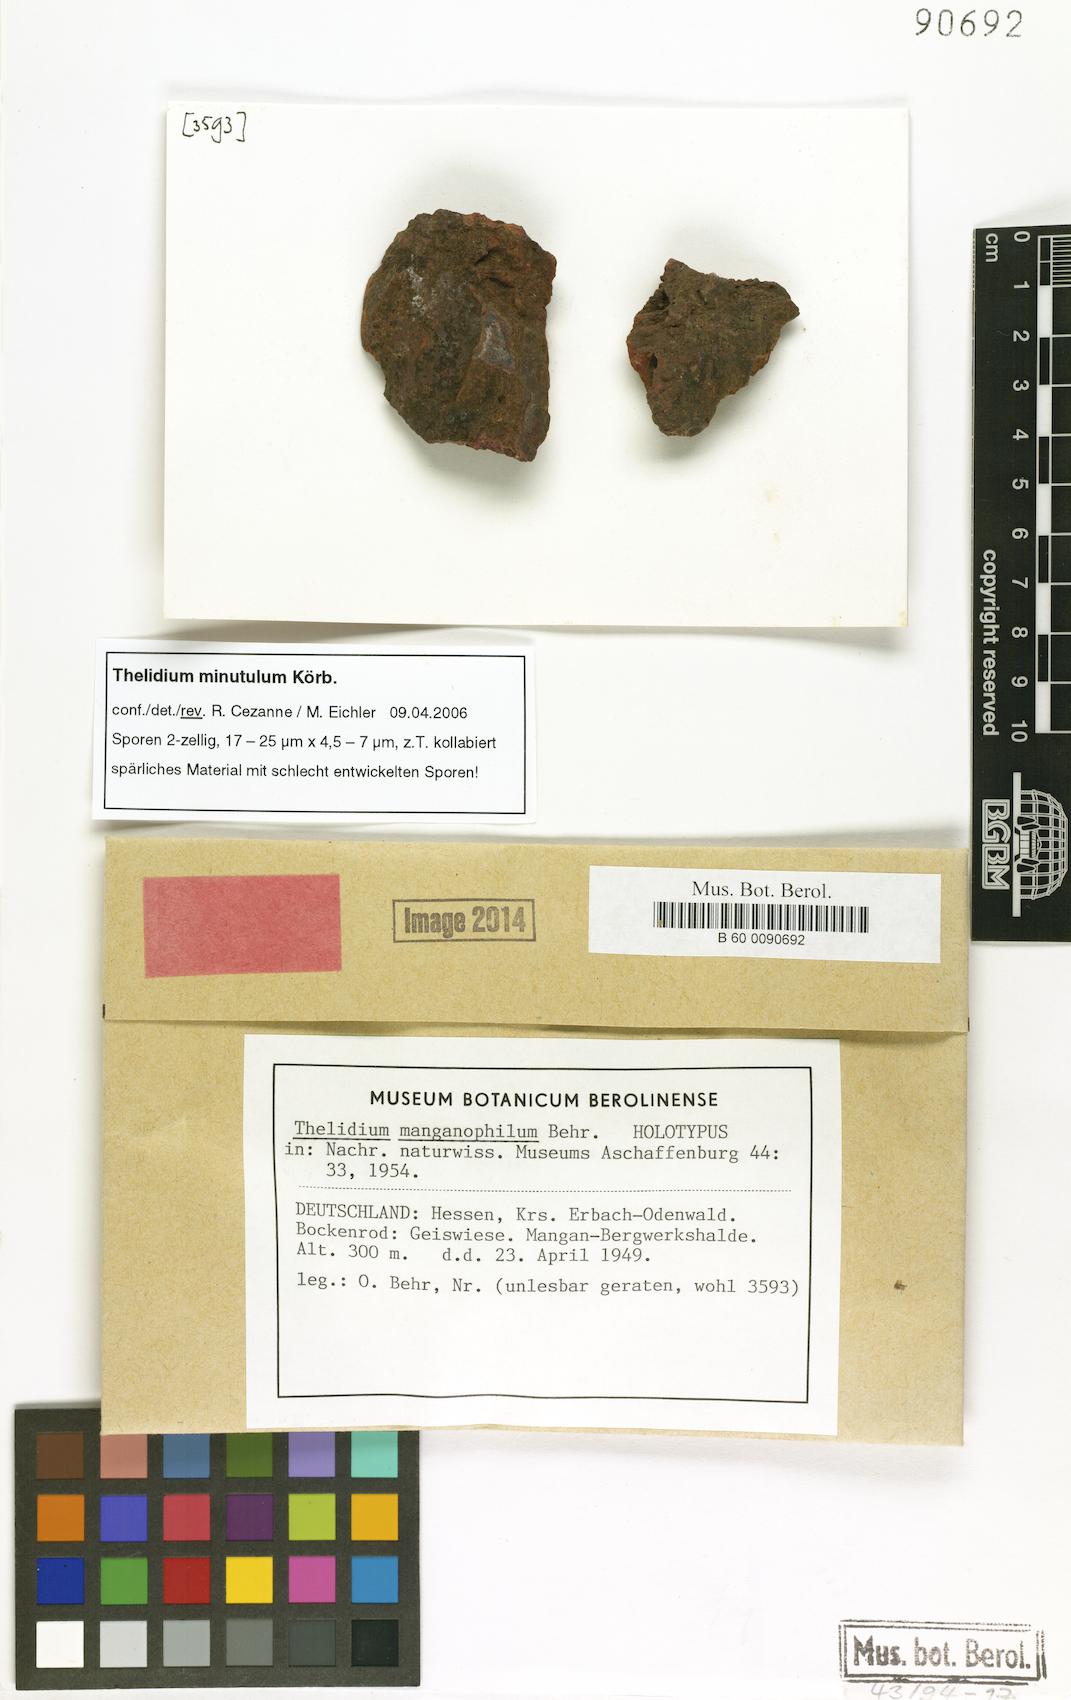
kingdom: Fungi
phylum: Ascomycota
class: Eurotiomycetes
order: Verrucariales
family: Verrucariaceae
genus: Thelidium
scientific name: Thelidium
